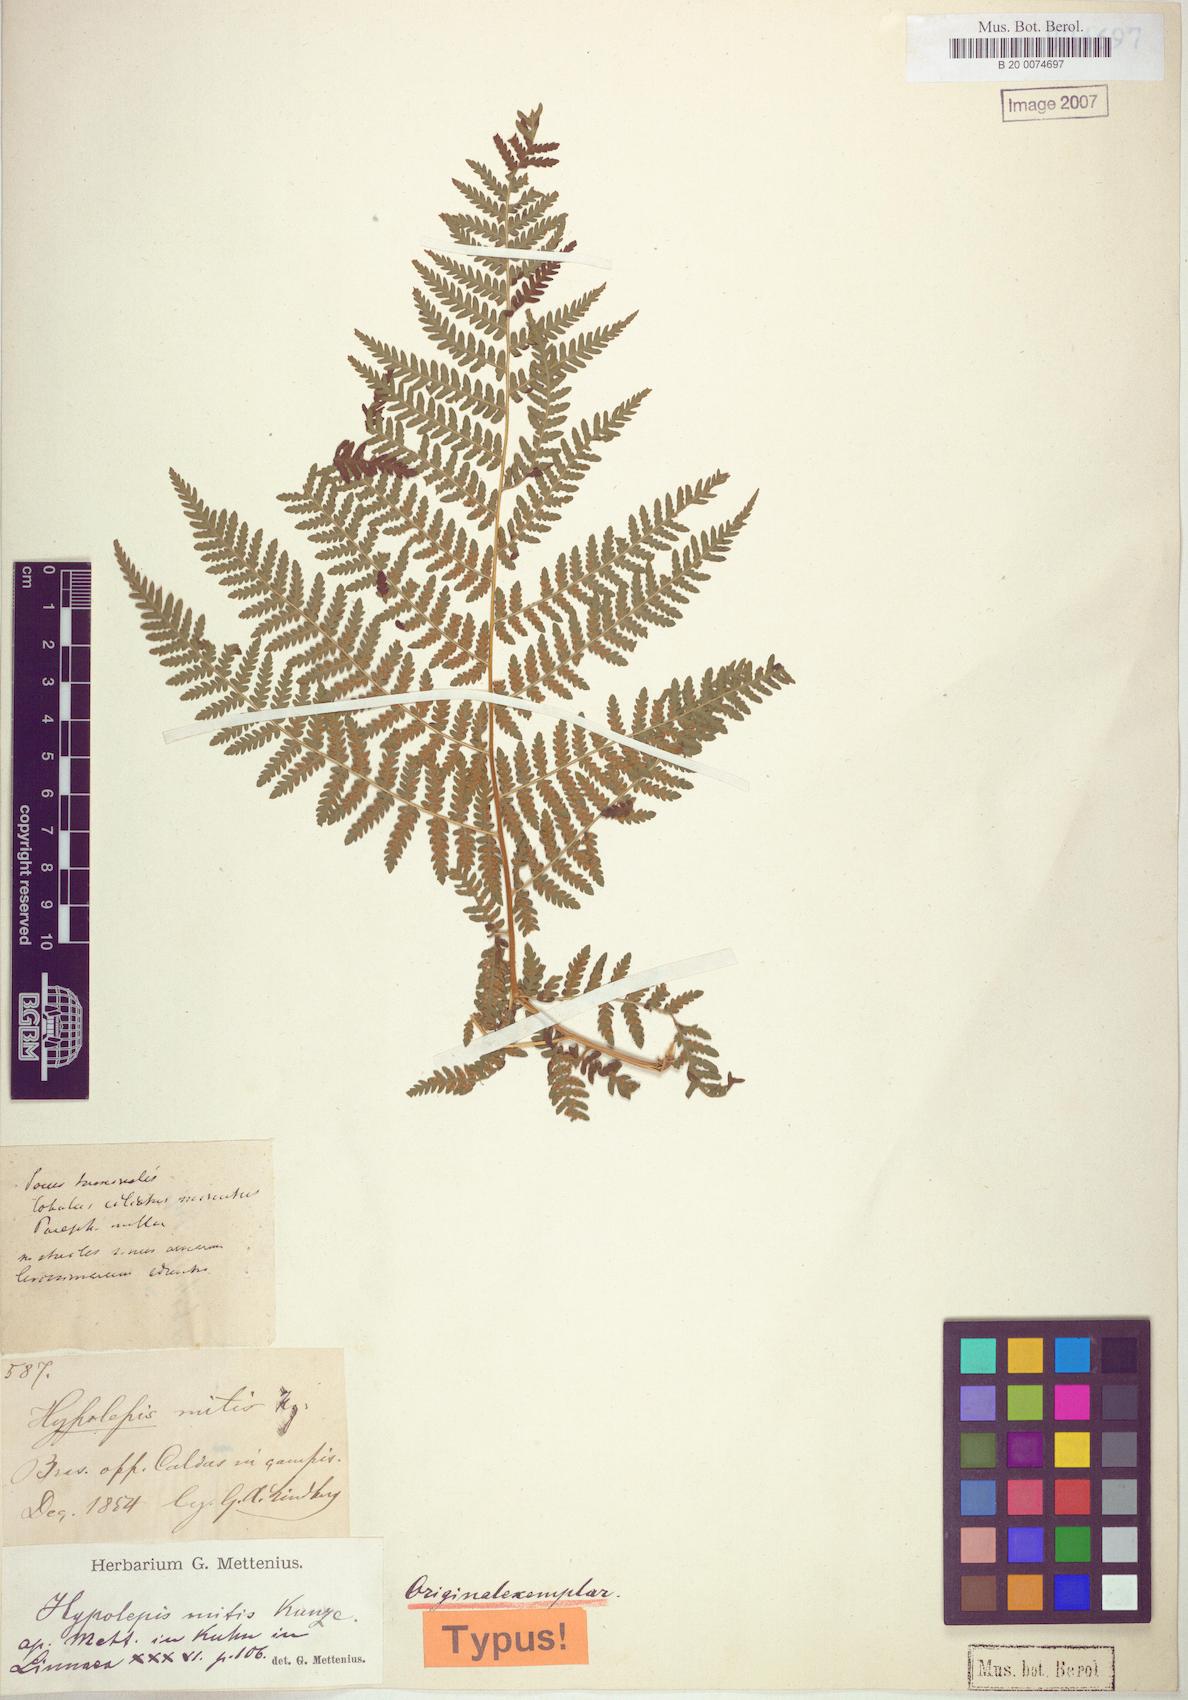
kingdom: Plantae
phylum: Tracheophyta
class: Polypodiopsida
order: Polypodiales
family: Dennstaedtiaceae
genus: Hypolepis
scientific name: Hypolepis mitis
